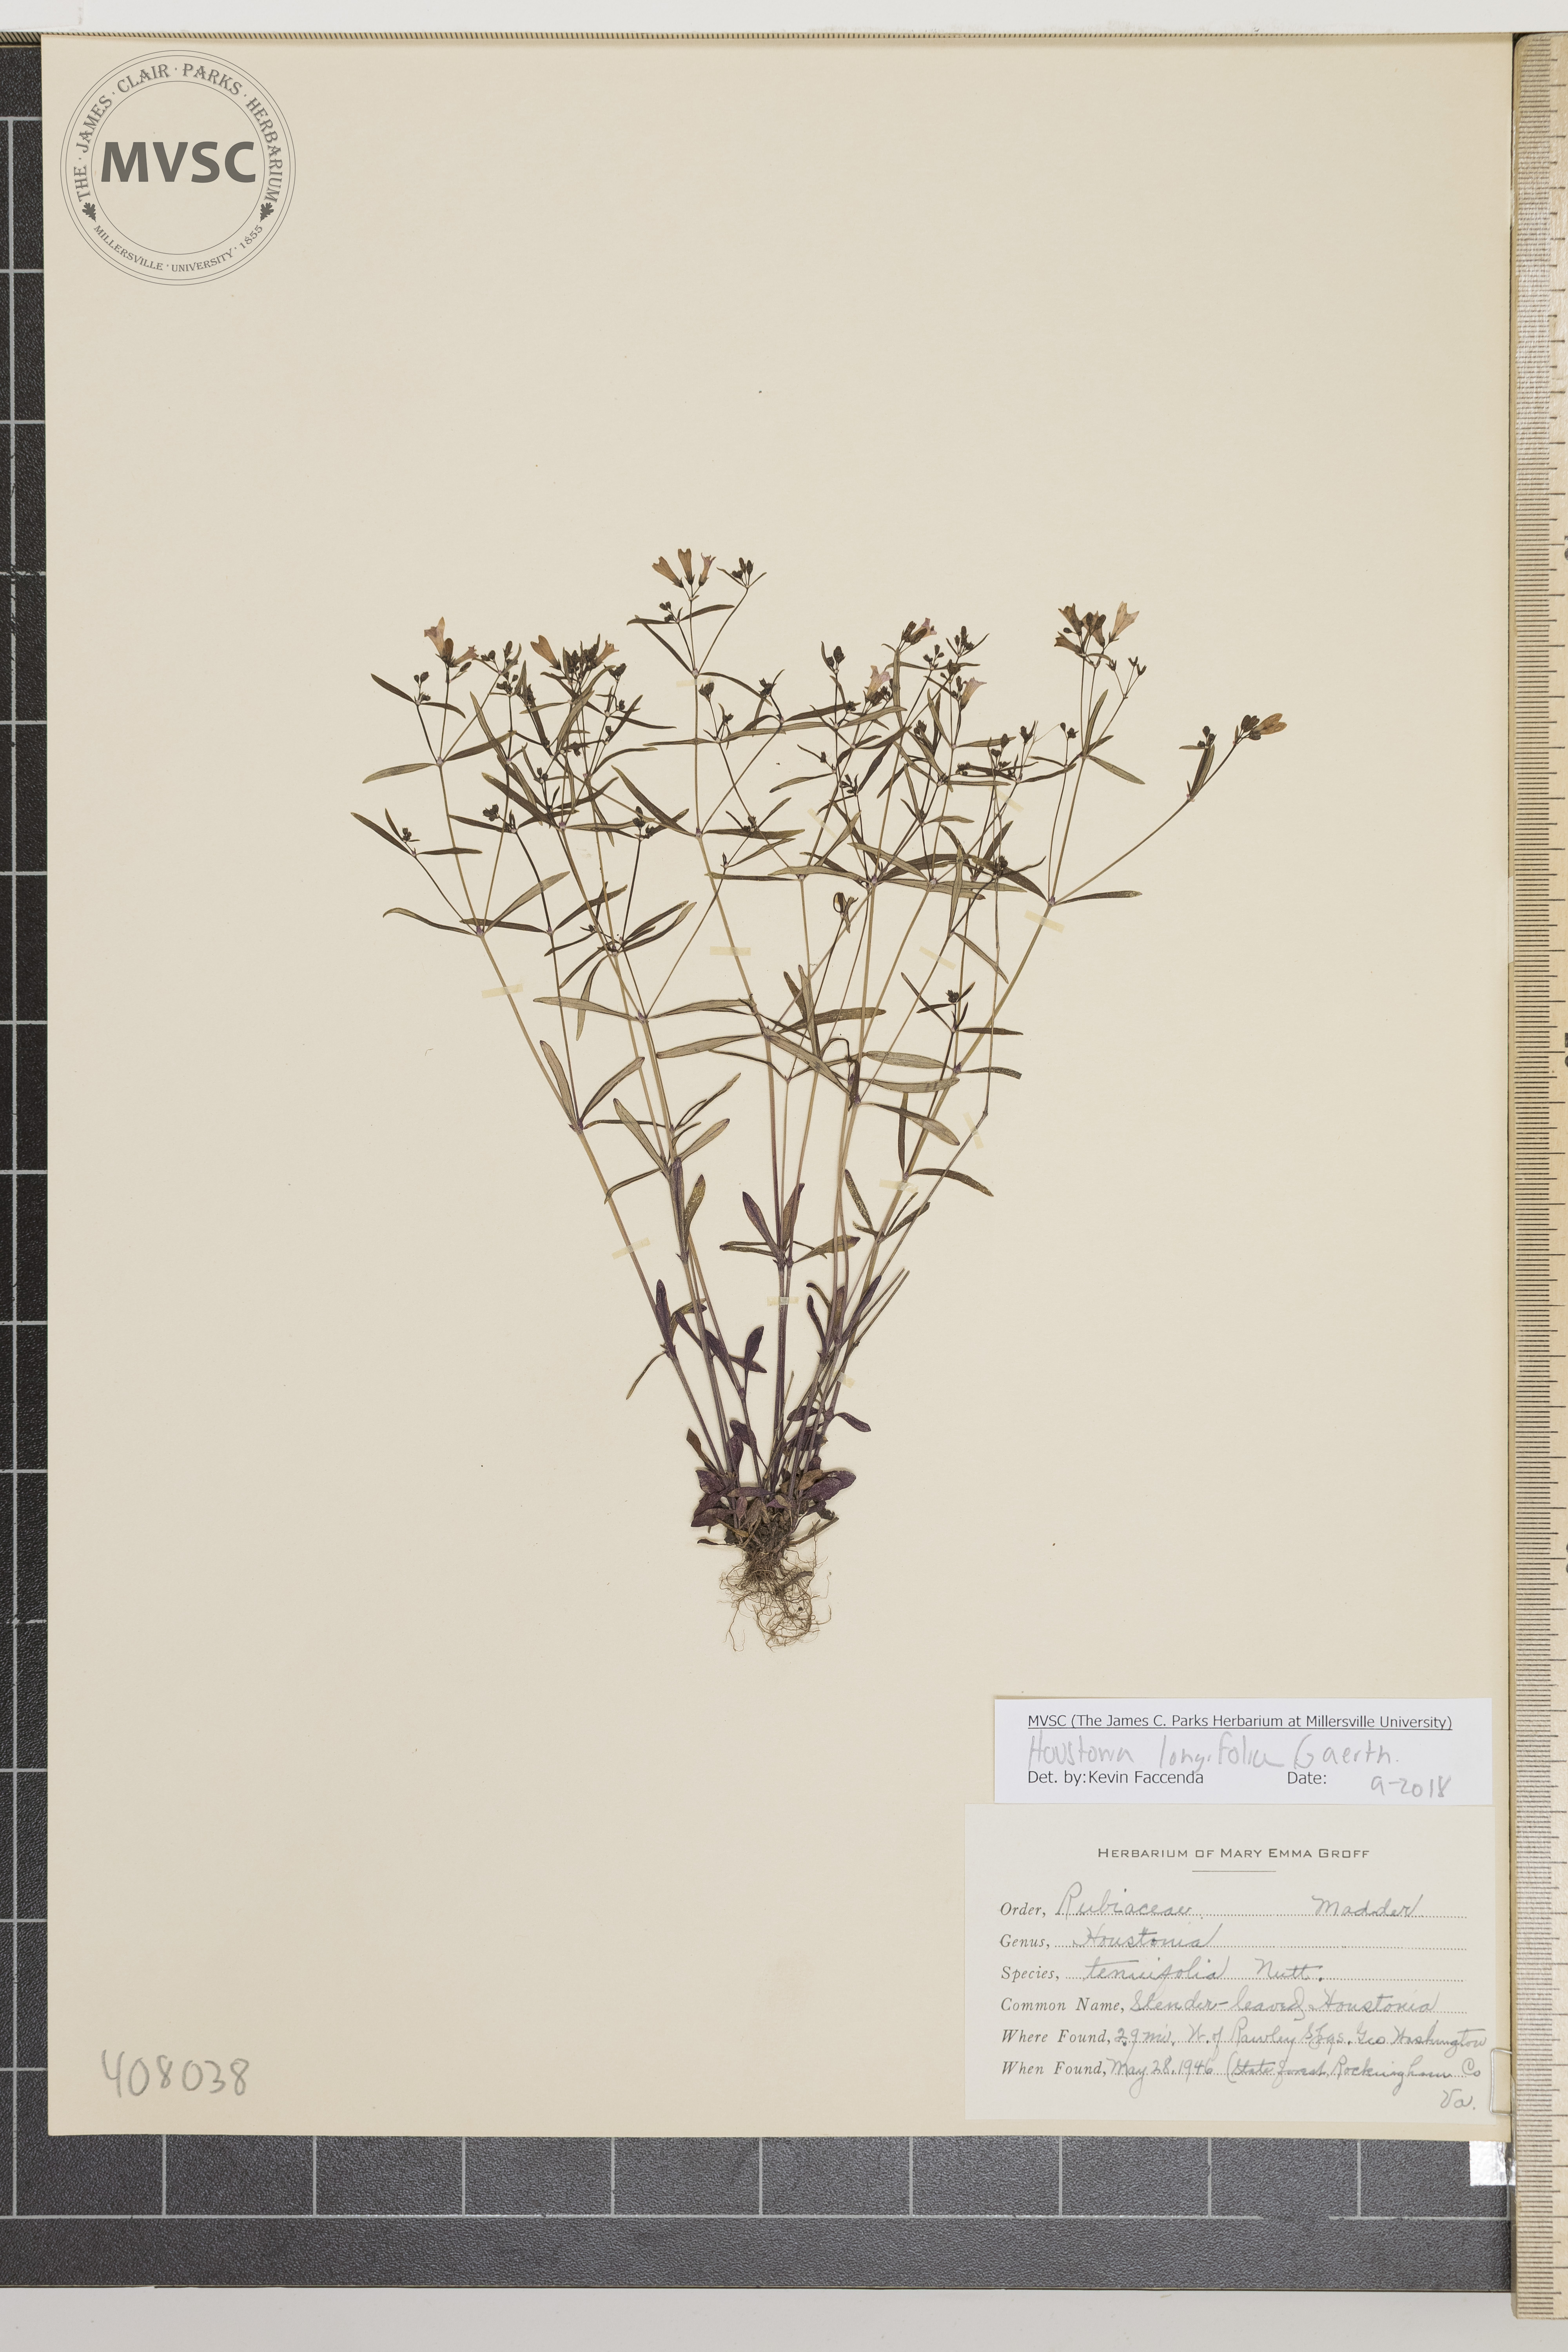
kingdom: Plantae
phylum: Tracheophyta
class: Magnoliopsida
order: Gentianales
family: Rubiaceae
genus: Houstonia
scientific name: Houstonia longifolia
